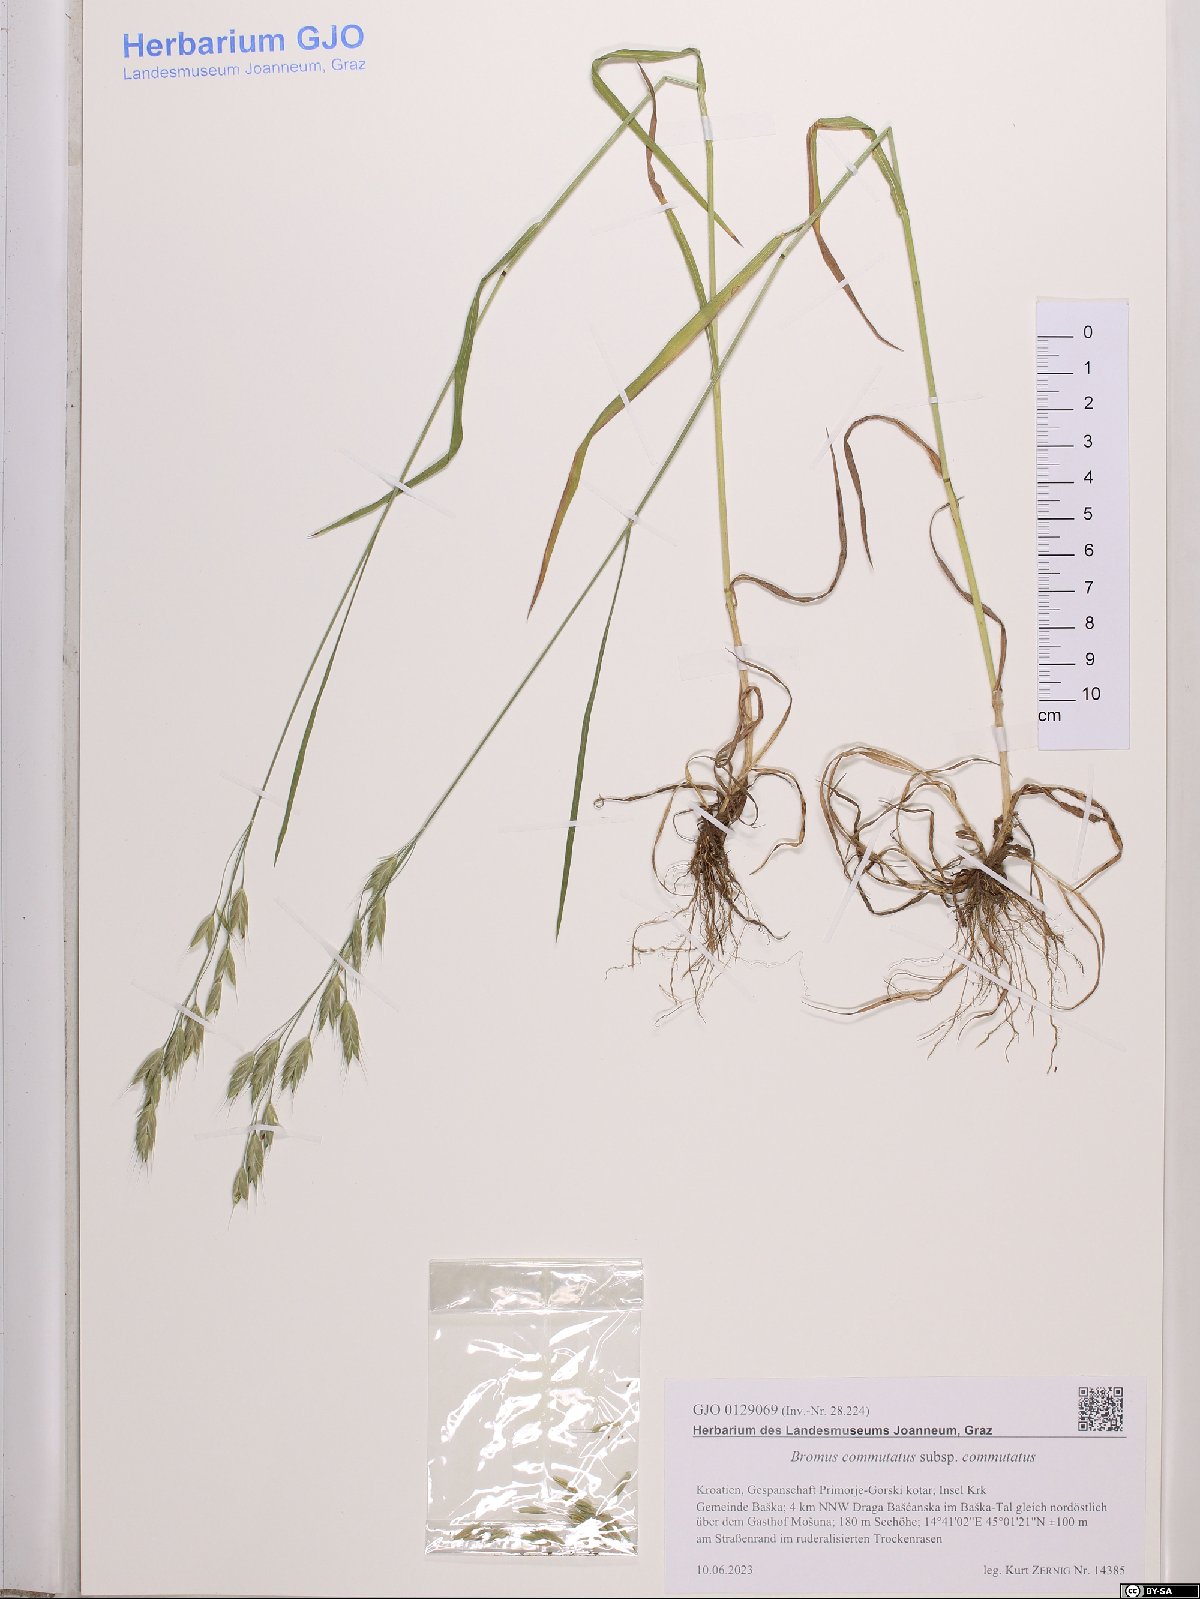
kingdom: Plantae
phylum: Tracheophyta
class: Liliopsida
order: Poales
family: Poaceae
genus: Bromus
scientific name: Bromus commutatus
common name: Meadow brome
